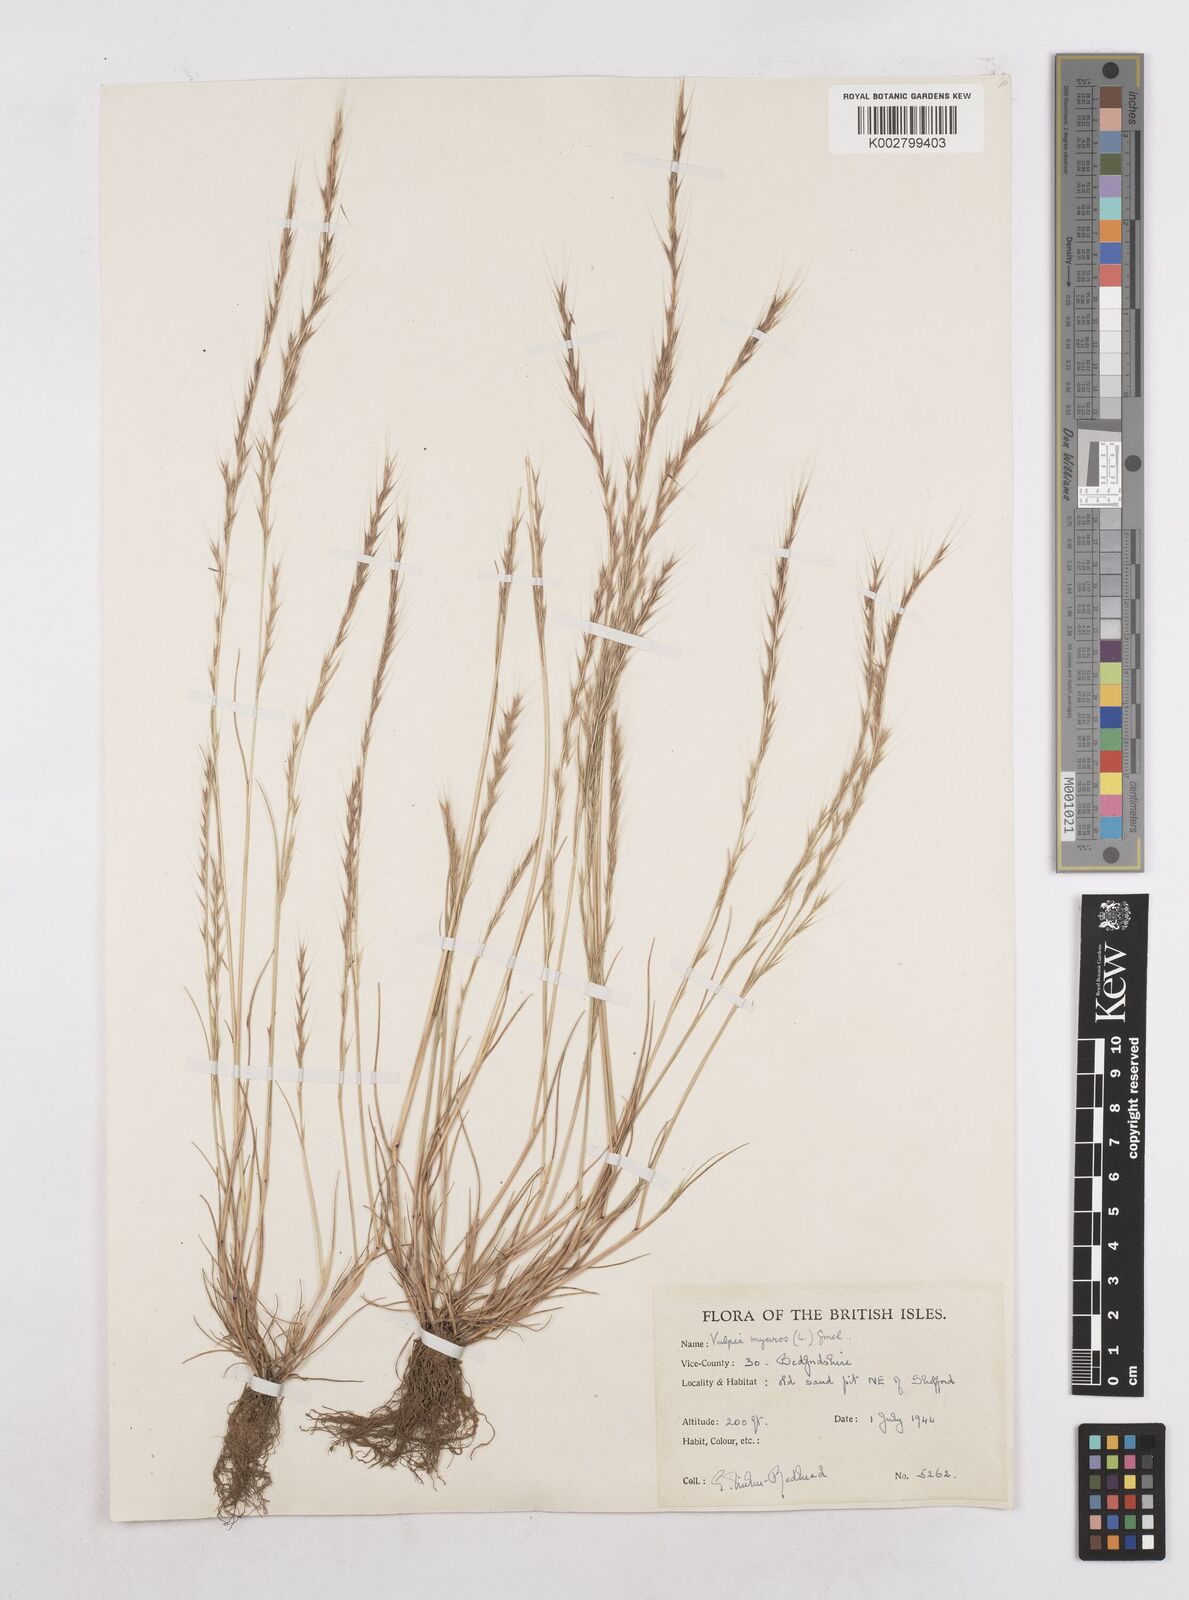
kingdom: Plantae
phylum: Tracheophyta
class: Liliopsida
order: Poales
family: Poaceae
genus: Festuca
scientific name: Festuca myuros
